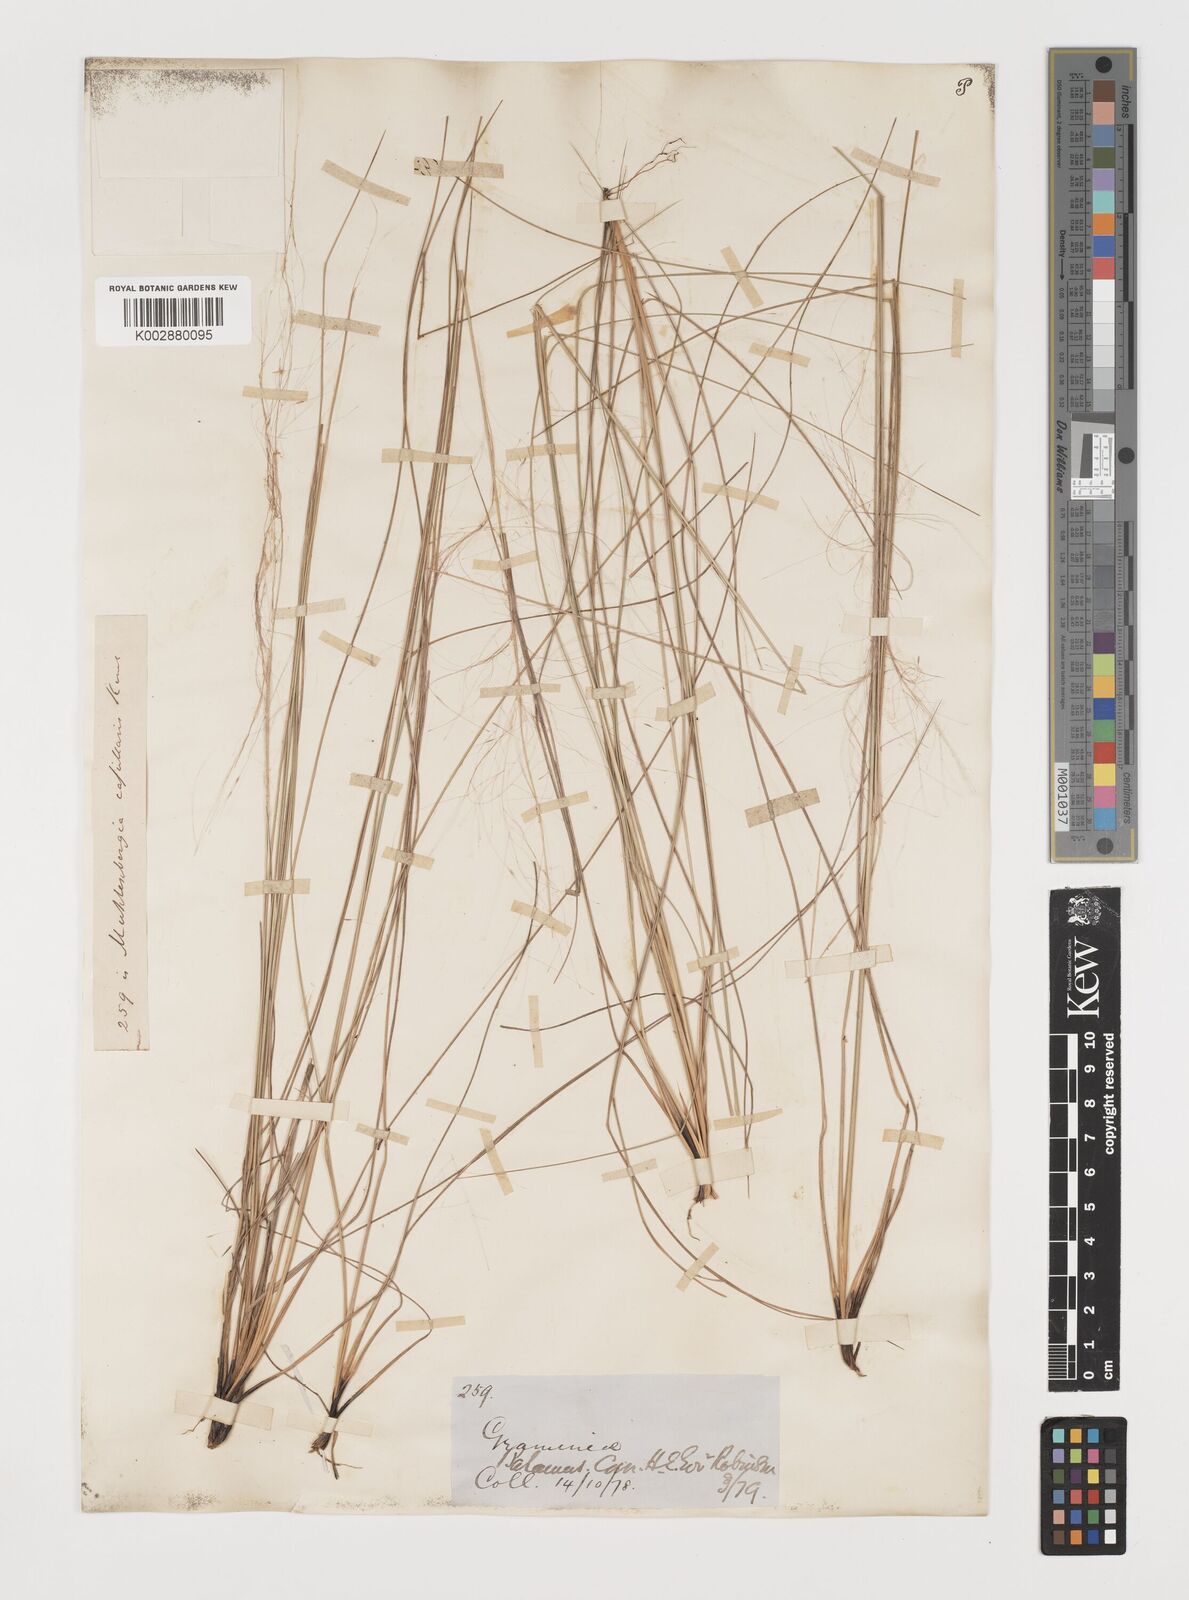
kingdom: Plantae
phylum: Tracheophyta
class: Liliopsida
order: Poales
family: Poaceae
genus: Muhlenbergia
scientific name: Muhlenbergia capillaris
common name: Purple grass
